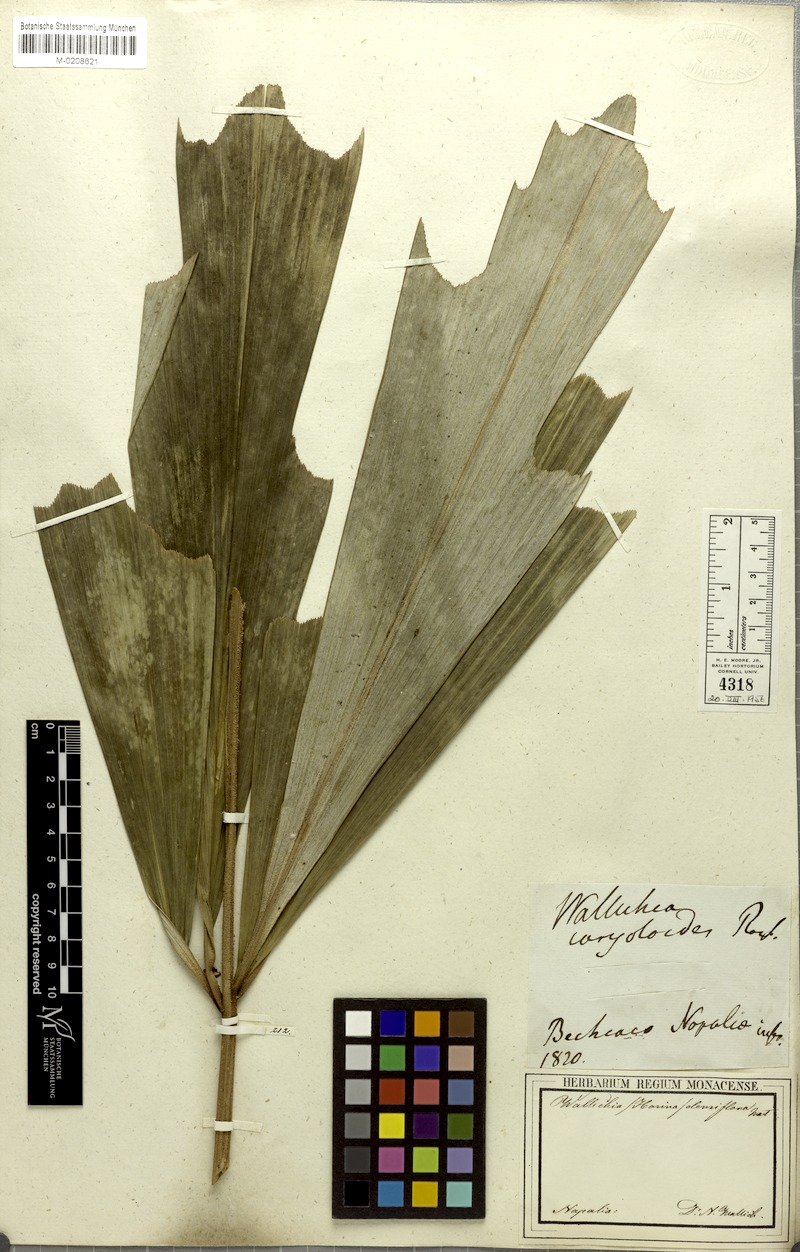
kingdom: Plantae
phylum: Tracheophyta
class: Liliopsida
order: Arecales
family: Arecaceae
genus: Wallichia
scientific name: Wallichia oblongifolia
